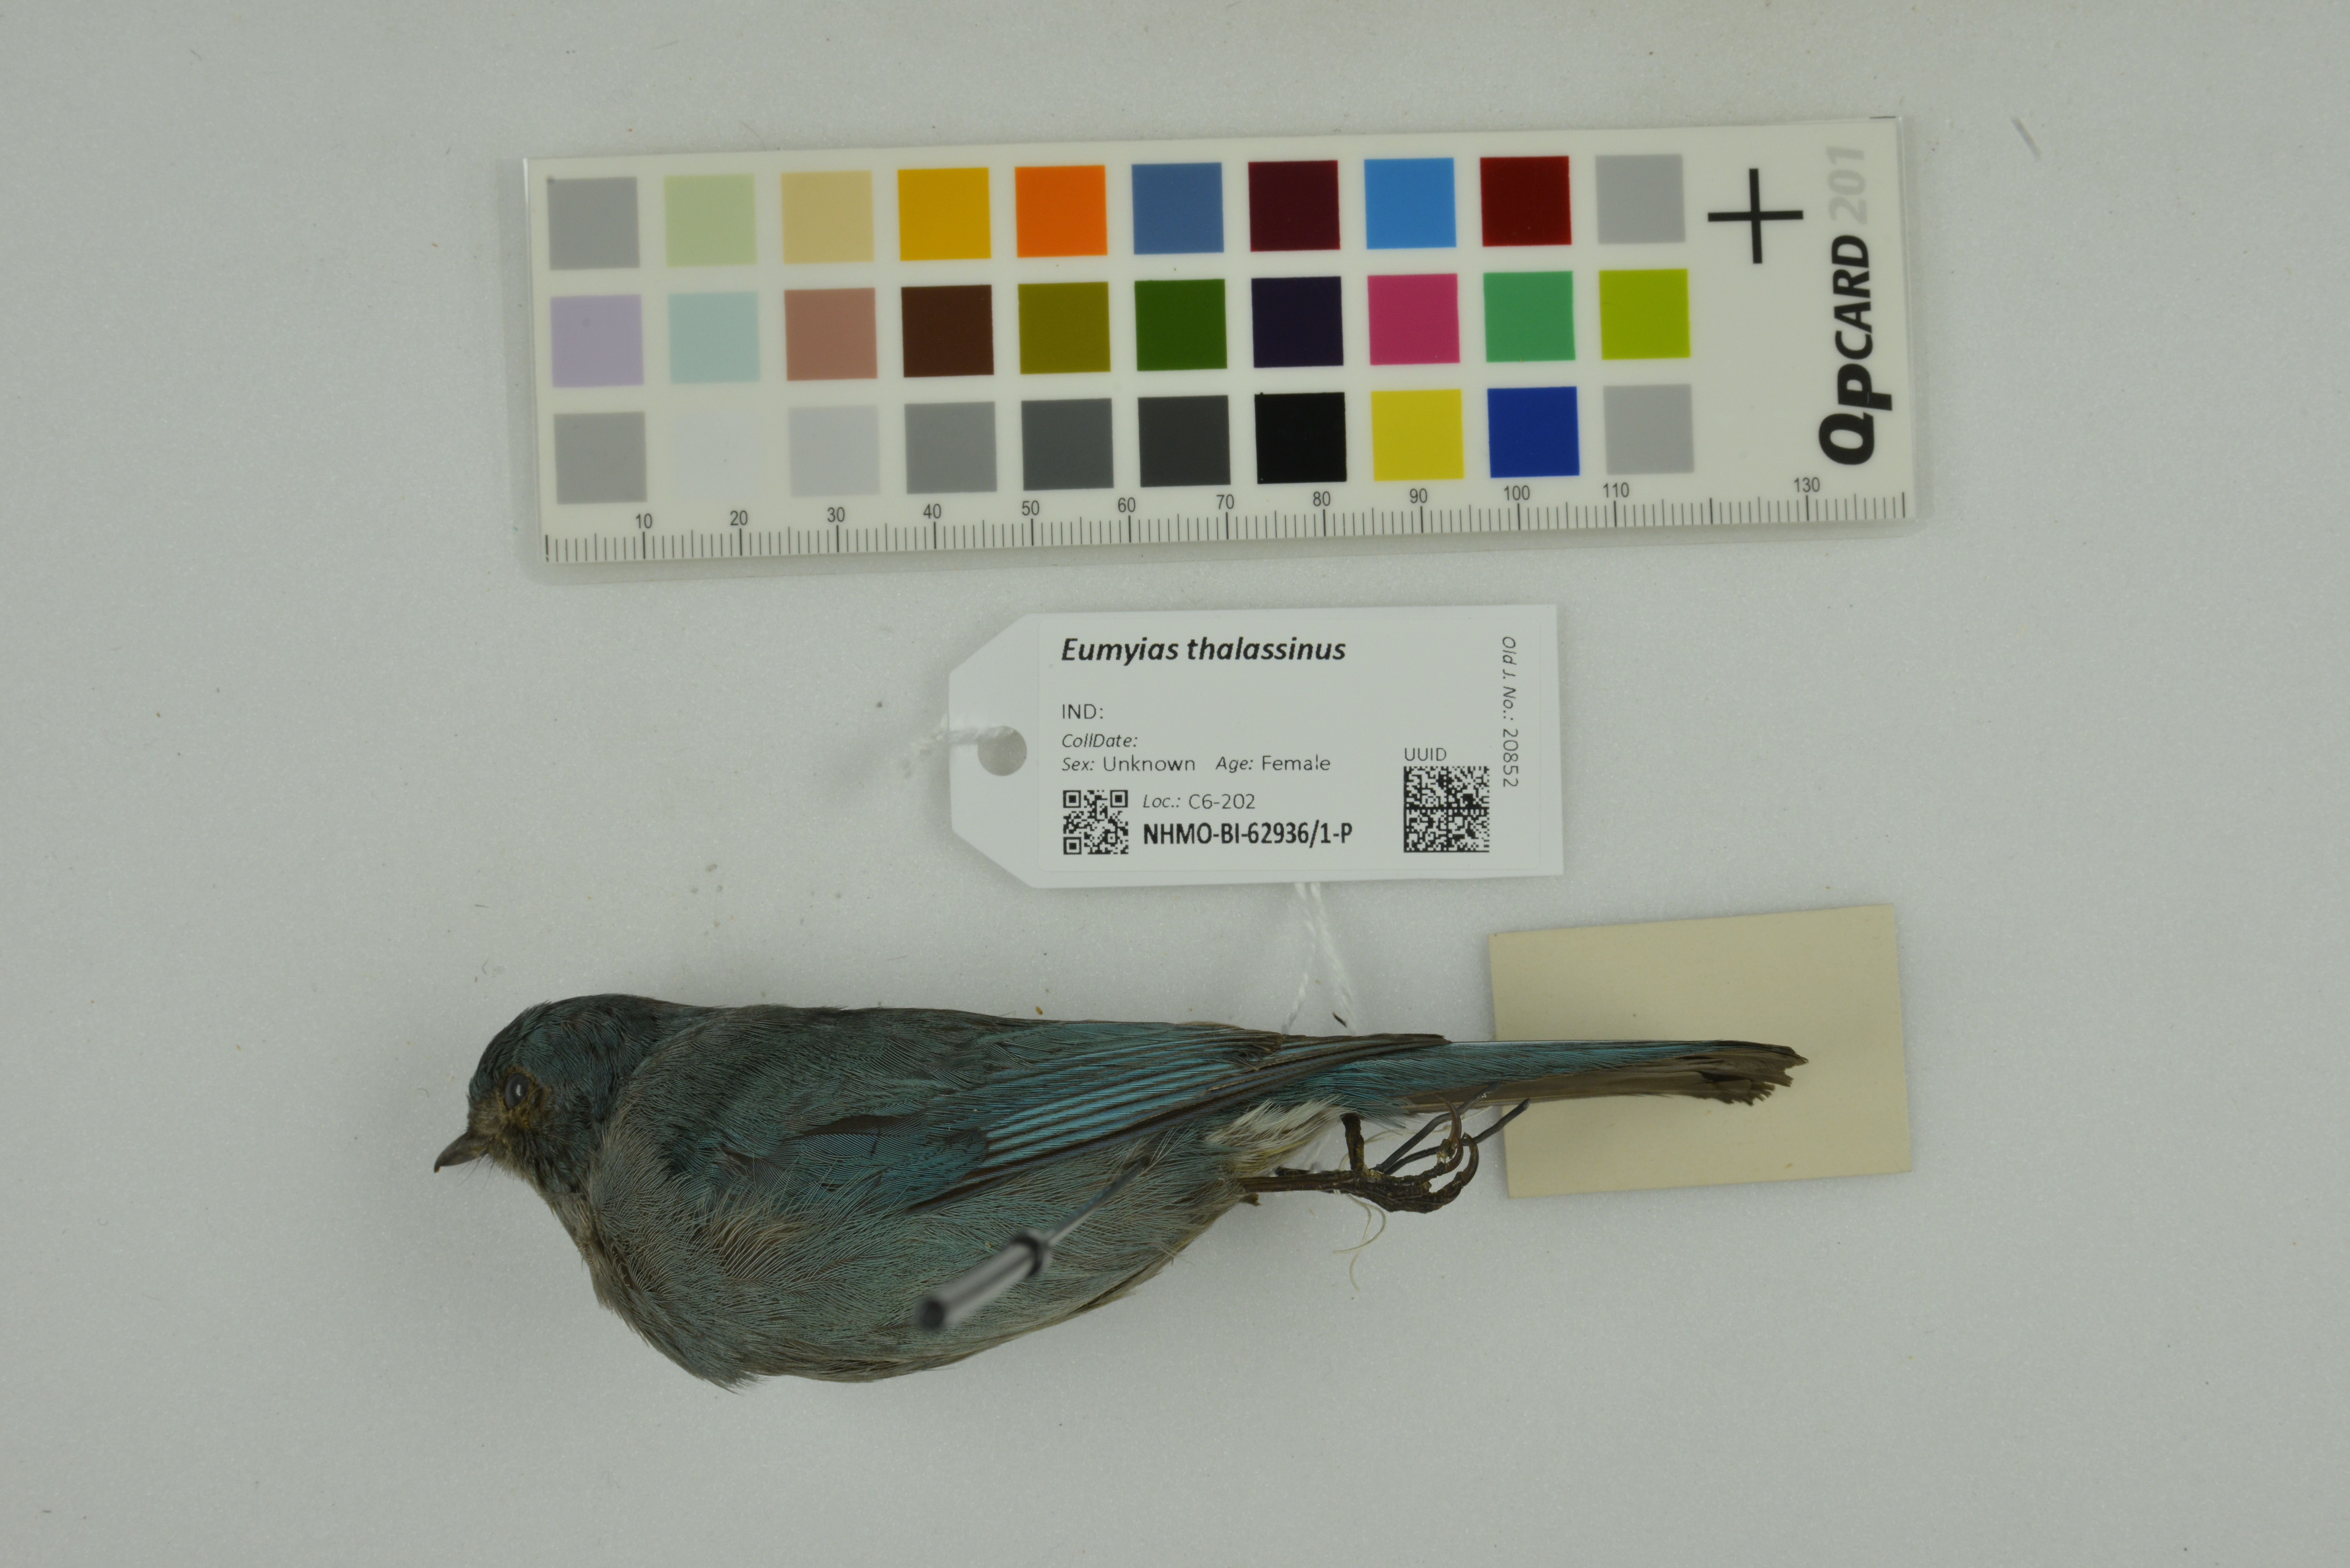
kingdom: Animalia
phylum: Chordata
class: Aves
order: Passeriformes
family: Muscicapidae
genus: Eumyias
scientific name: Eumyias thalassinus
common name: Verditer flycatcher
